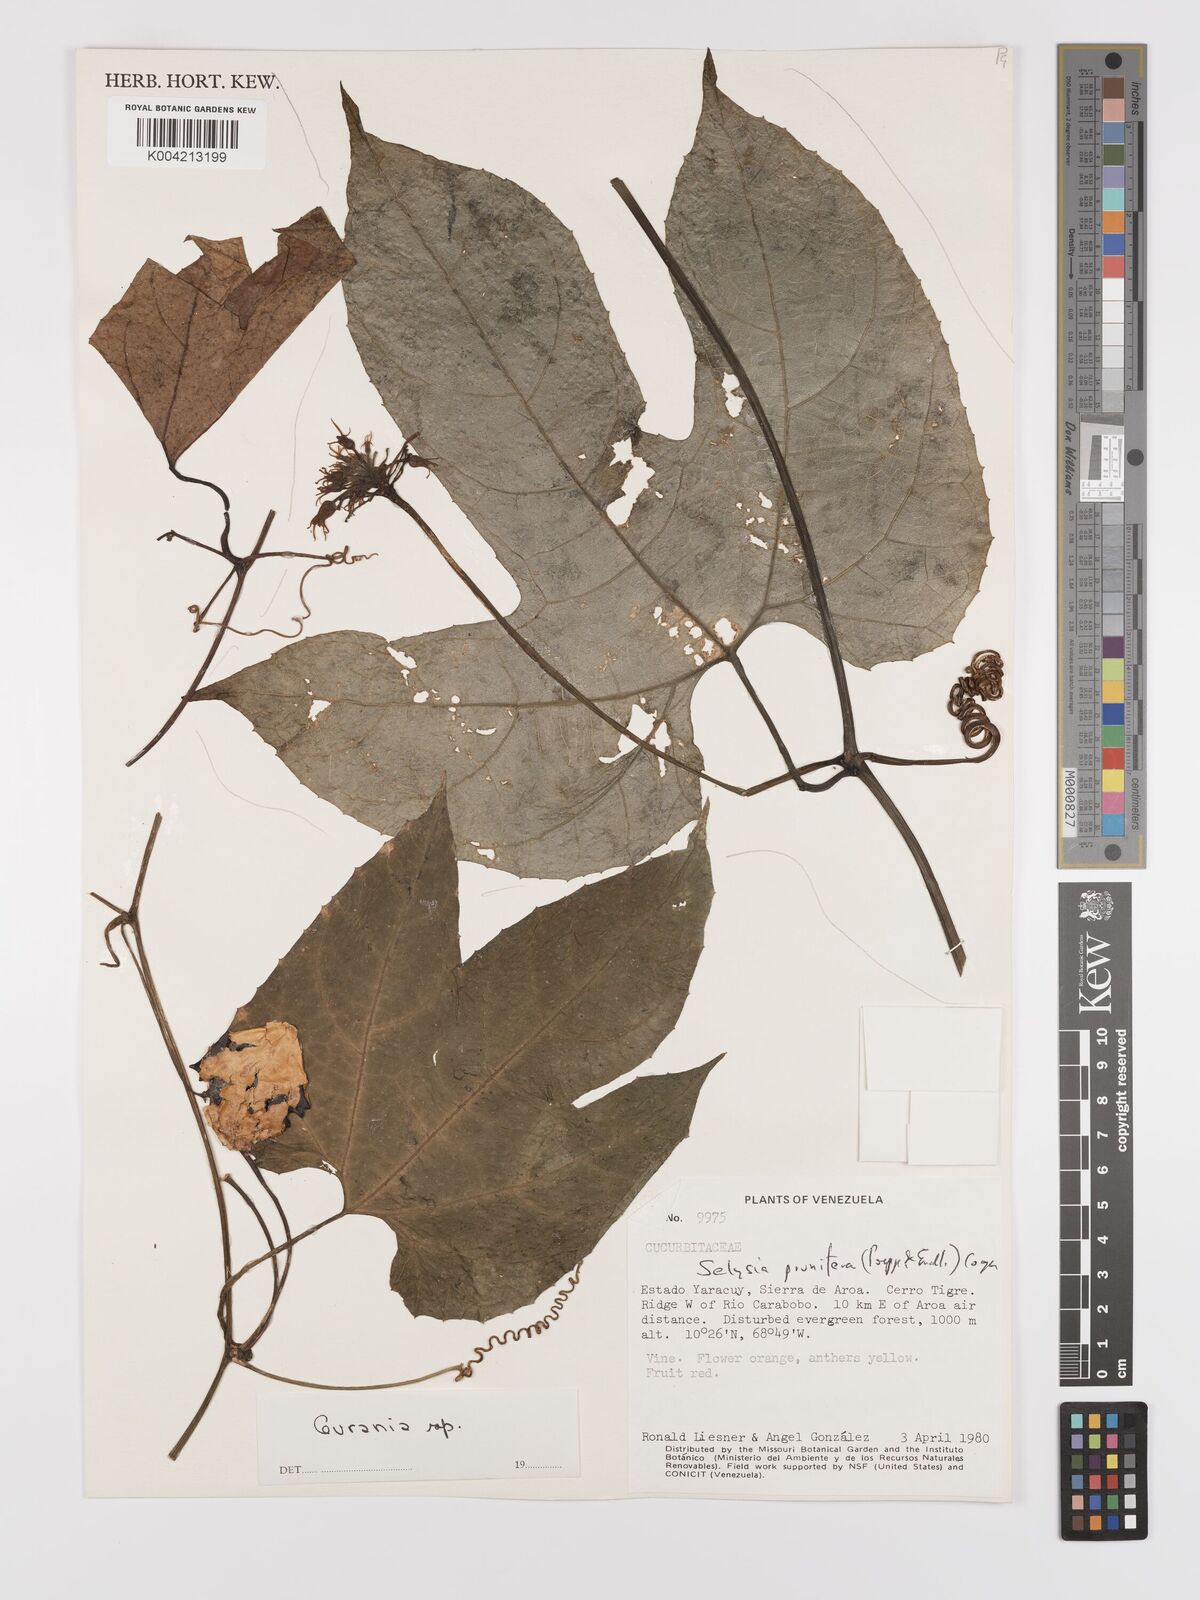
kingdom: Plantae
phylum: Tracheophyta
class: Magnoliopsida
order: Cucurbitales
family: Cucurbitaceae
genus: Cayaponia
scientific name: Cayaponia prunifera
